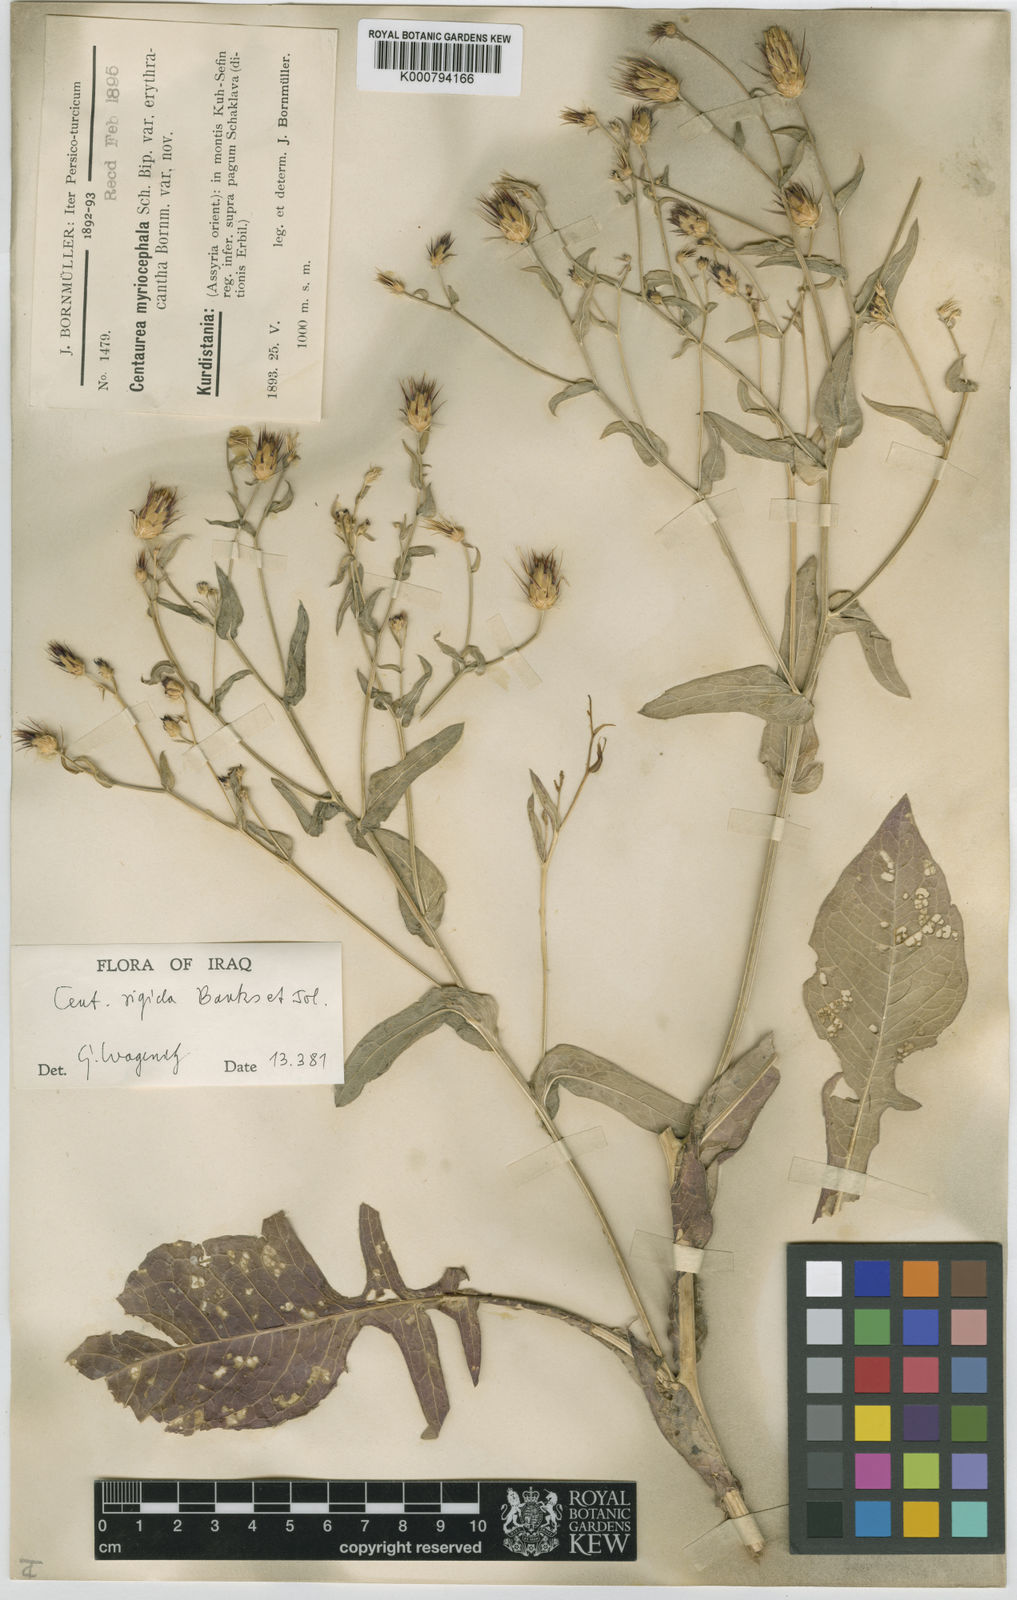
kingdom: Plantae
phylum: Tracheophyta
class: Magnoliopsida
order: Asterales
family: Asteraceae
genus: Centaurea
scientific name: Centaurea rigida
